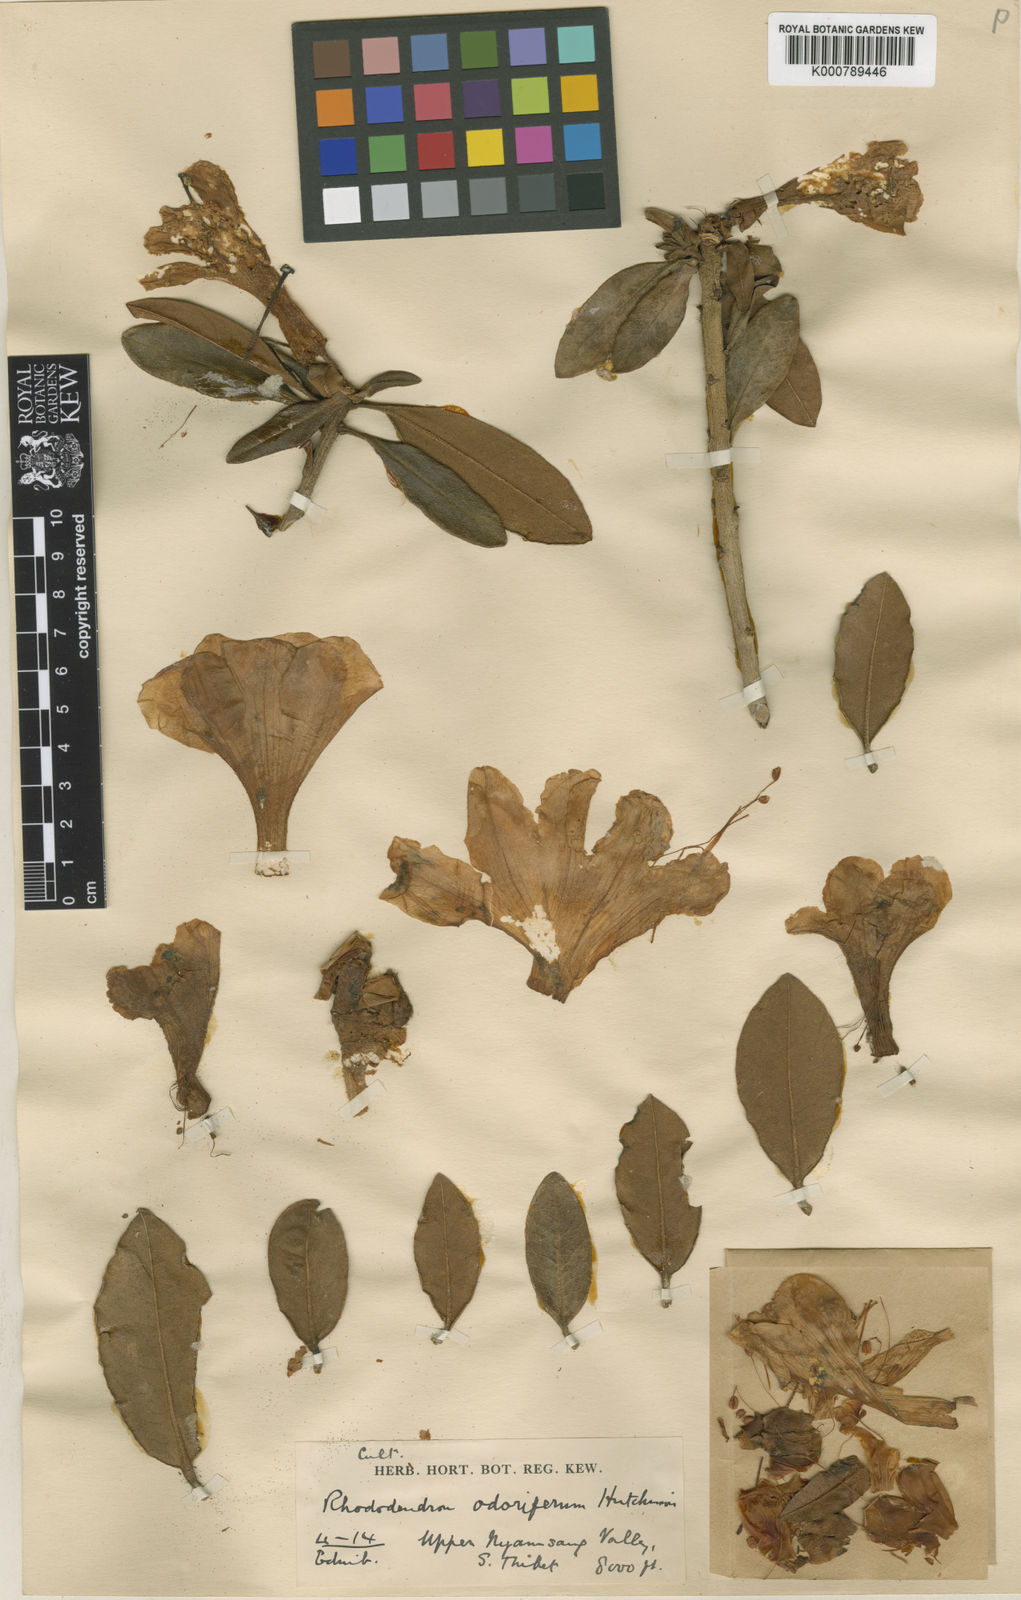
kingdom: Plantae
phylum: Tracheophyta
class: Magnoliopsida
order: Ericales
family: Ericaceae
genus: Rhododendron
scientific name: Rhododendron crassum
